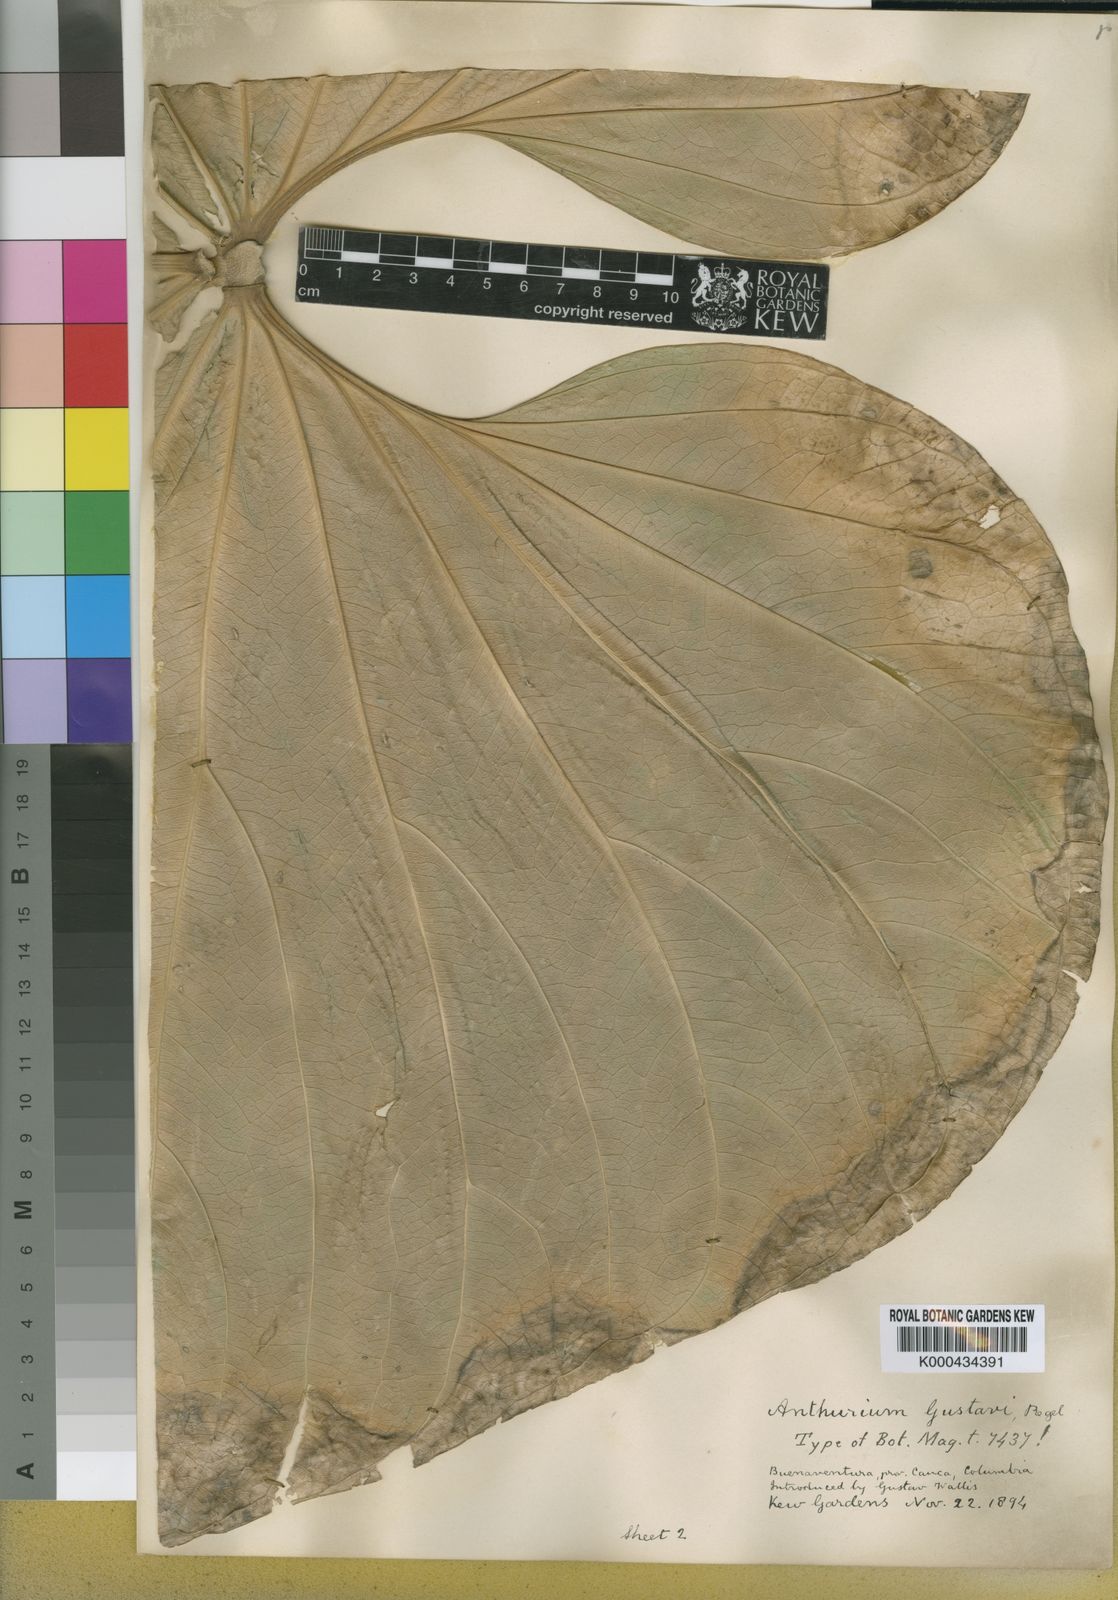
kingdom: Plantae
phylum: Tracheophyta
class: Liliopsida
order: Alismatales
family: Araceae
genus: Anthurium
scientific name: Anthurium gustavii
